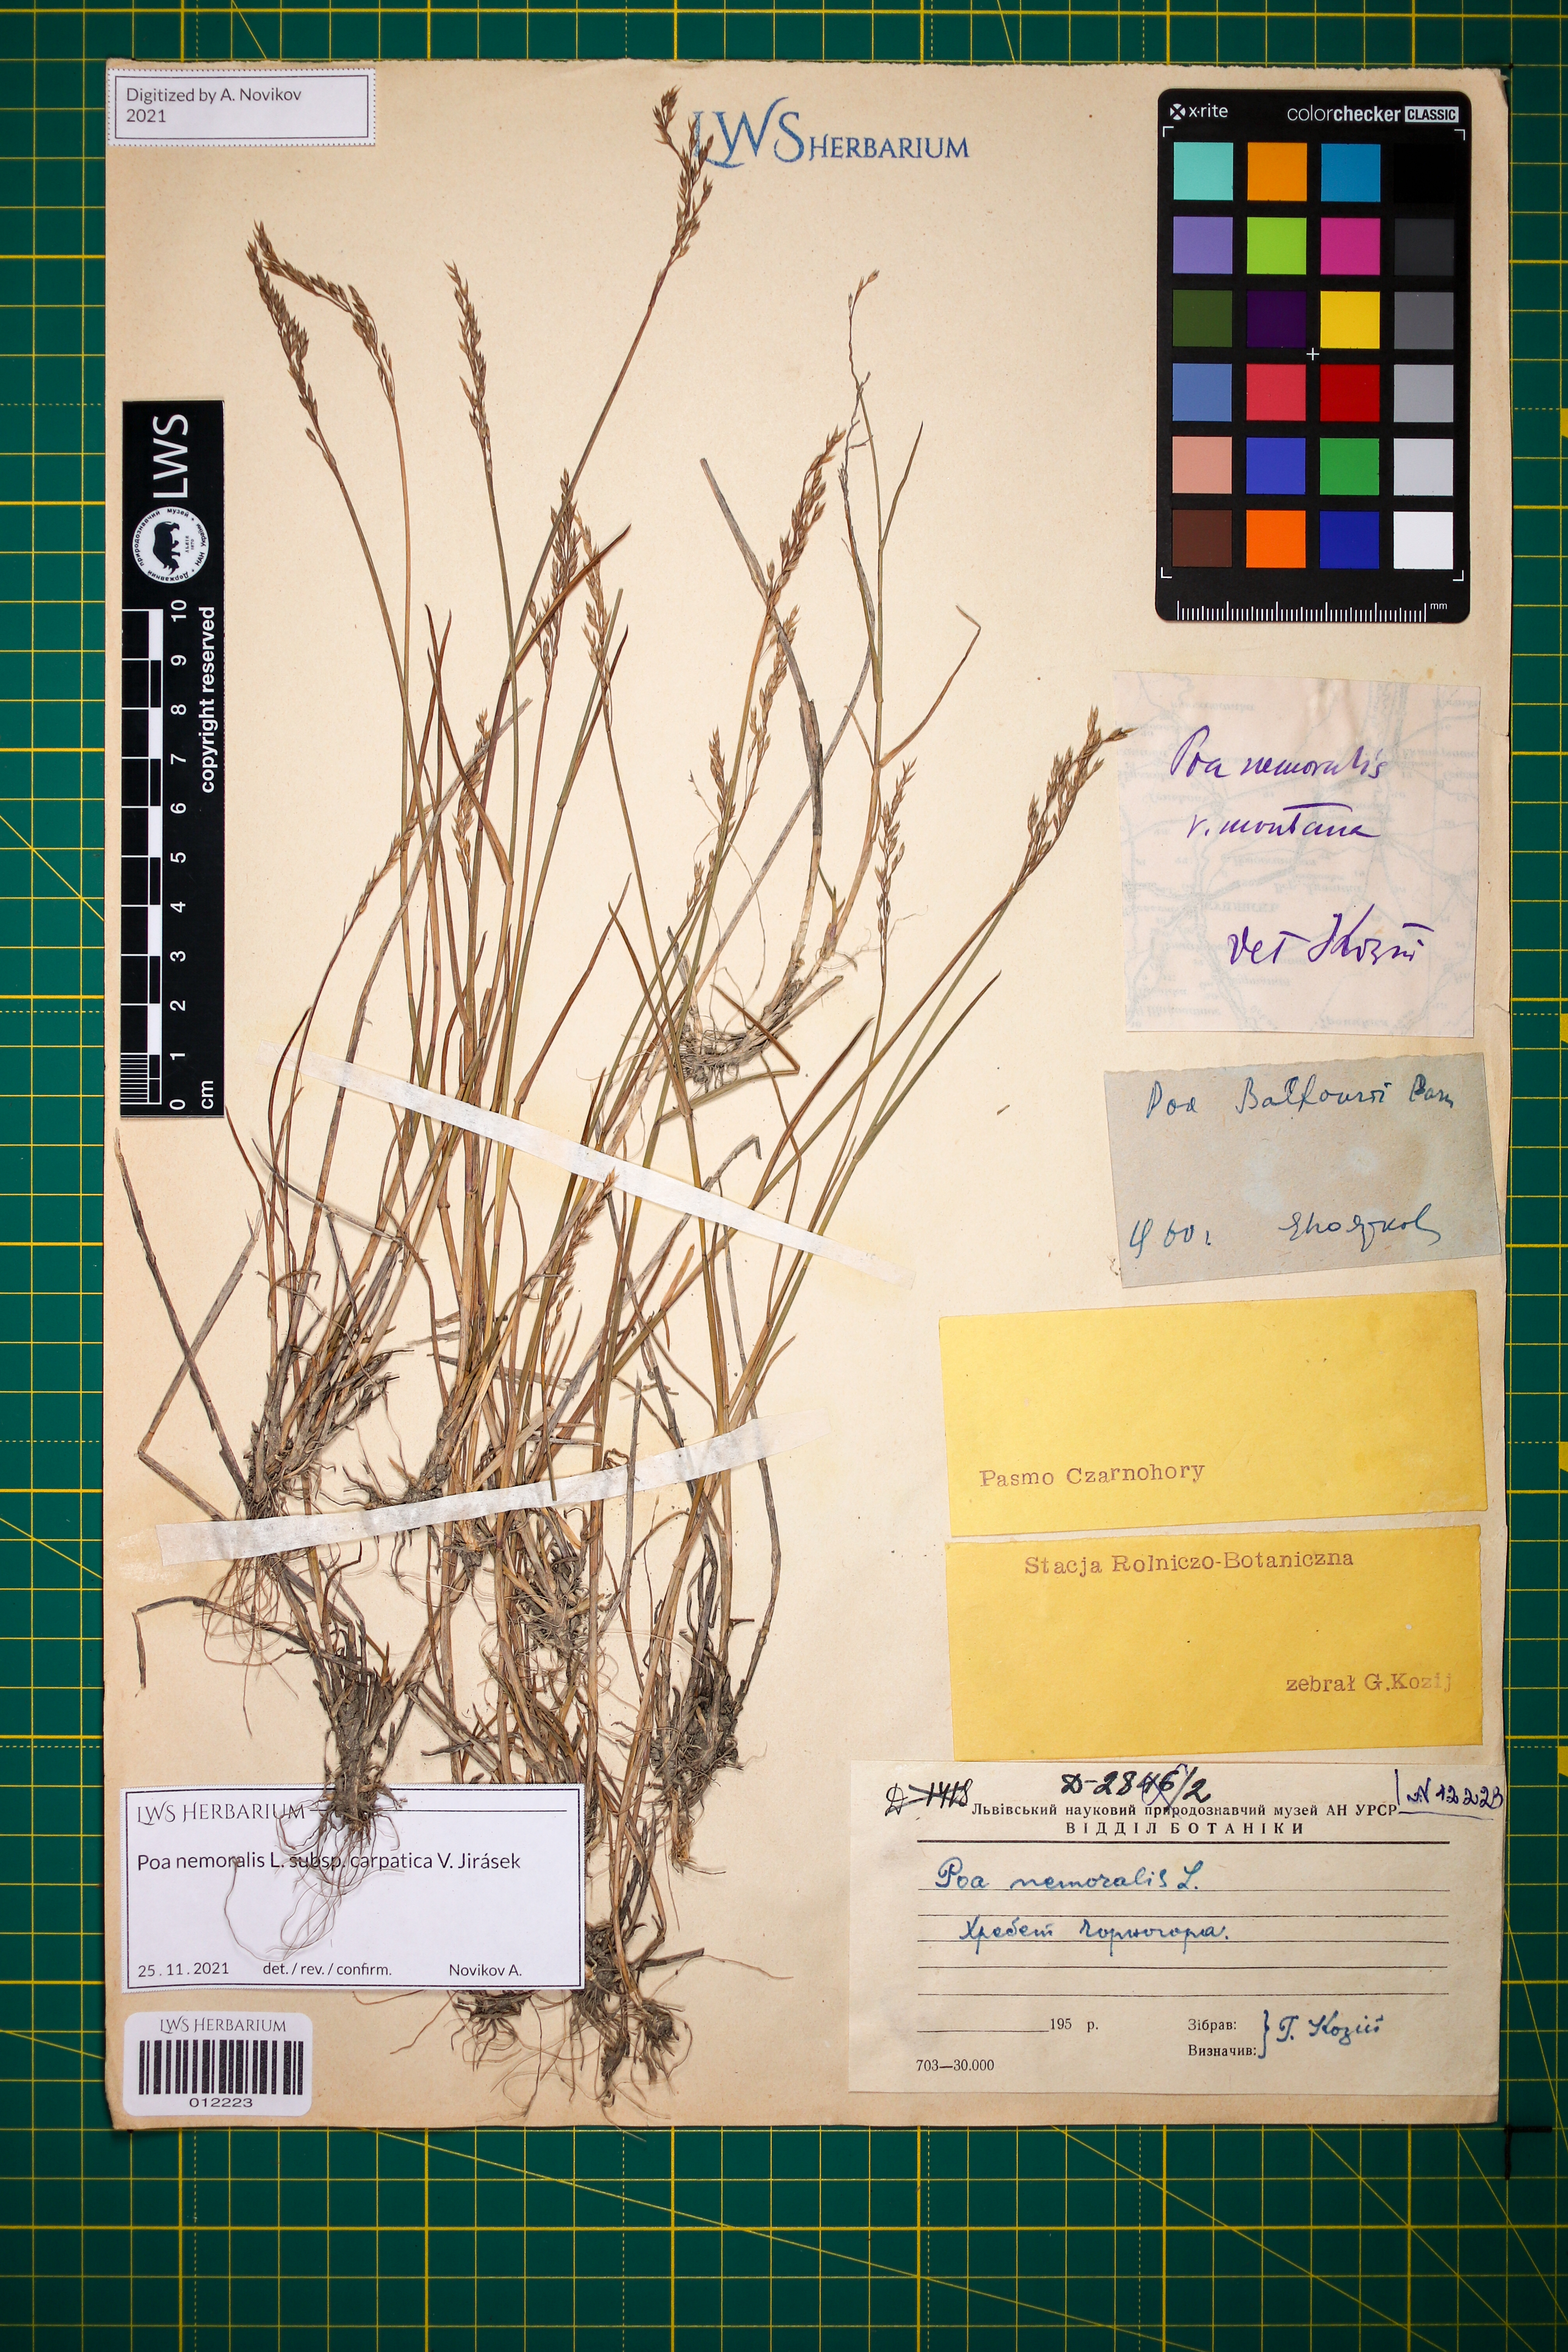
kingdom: Plantae
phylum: Tracheophyta
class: Liliopsida
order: Poales
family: Poaceae
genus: Poa
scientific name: Poa carpatica
